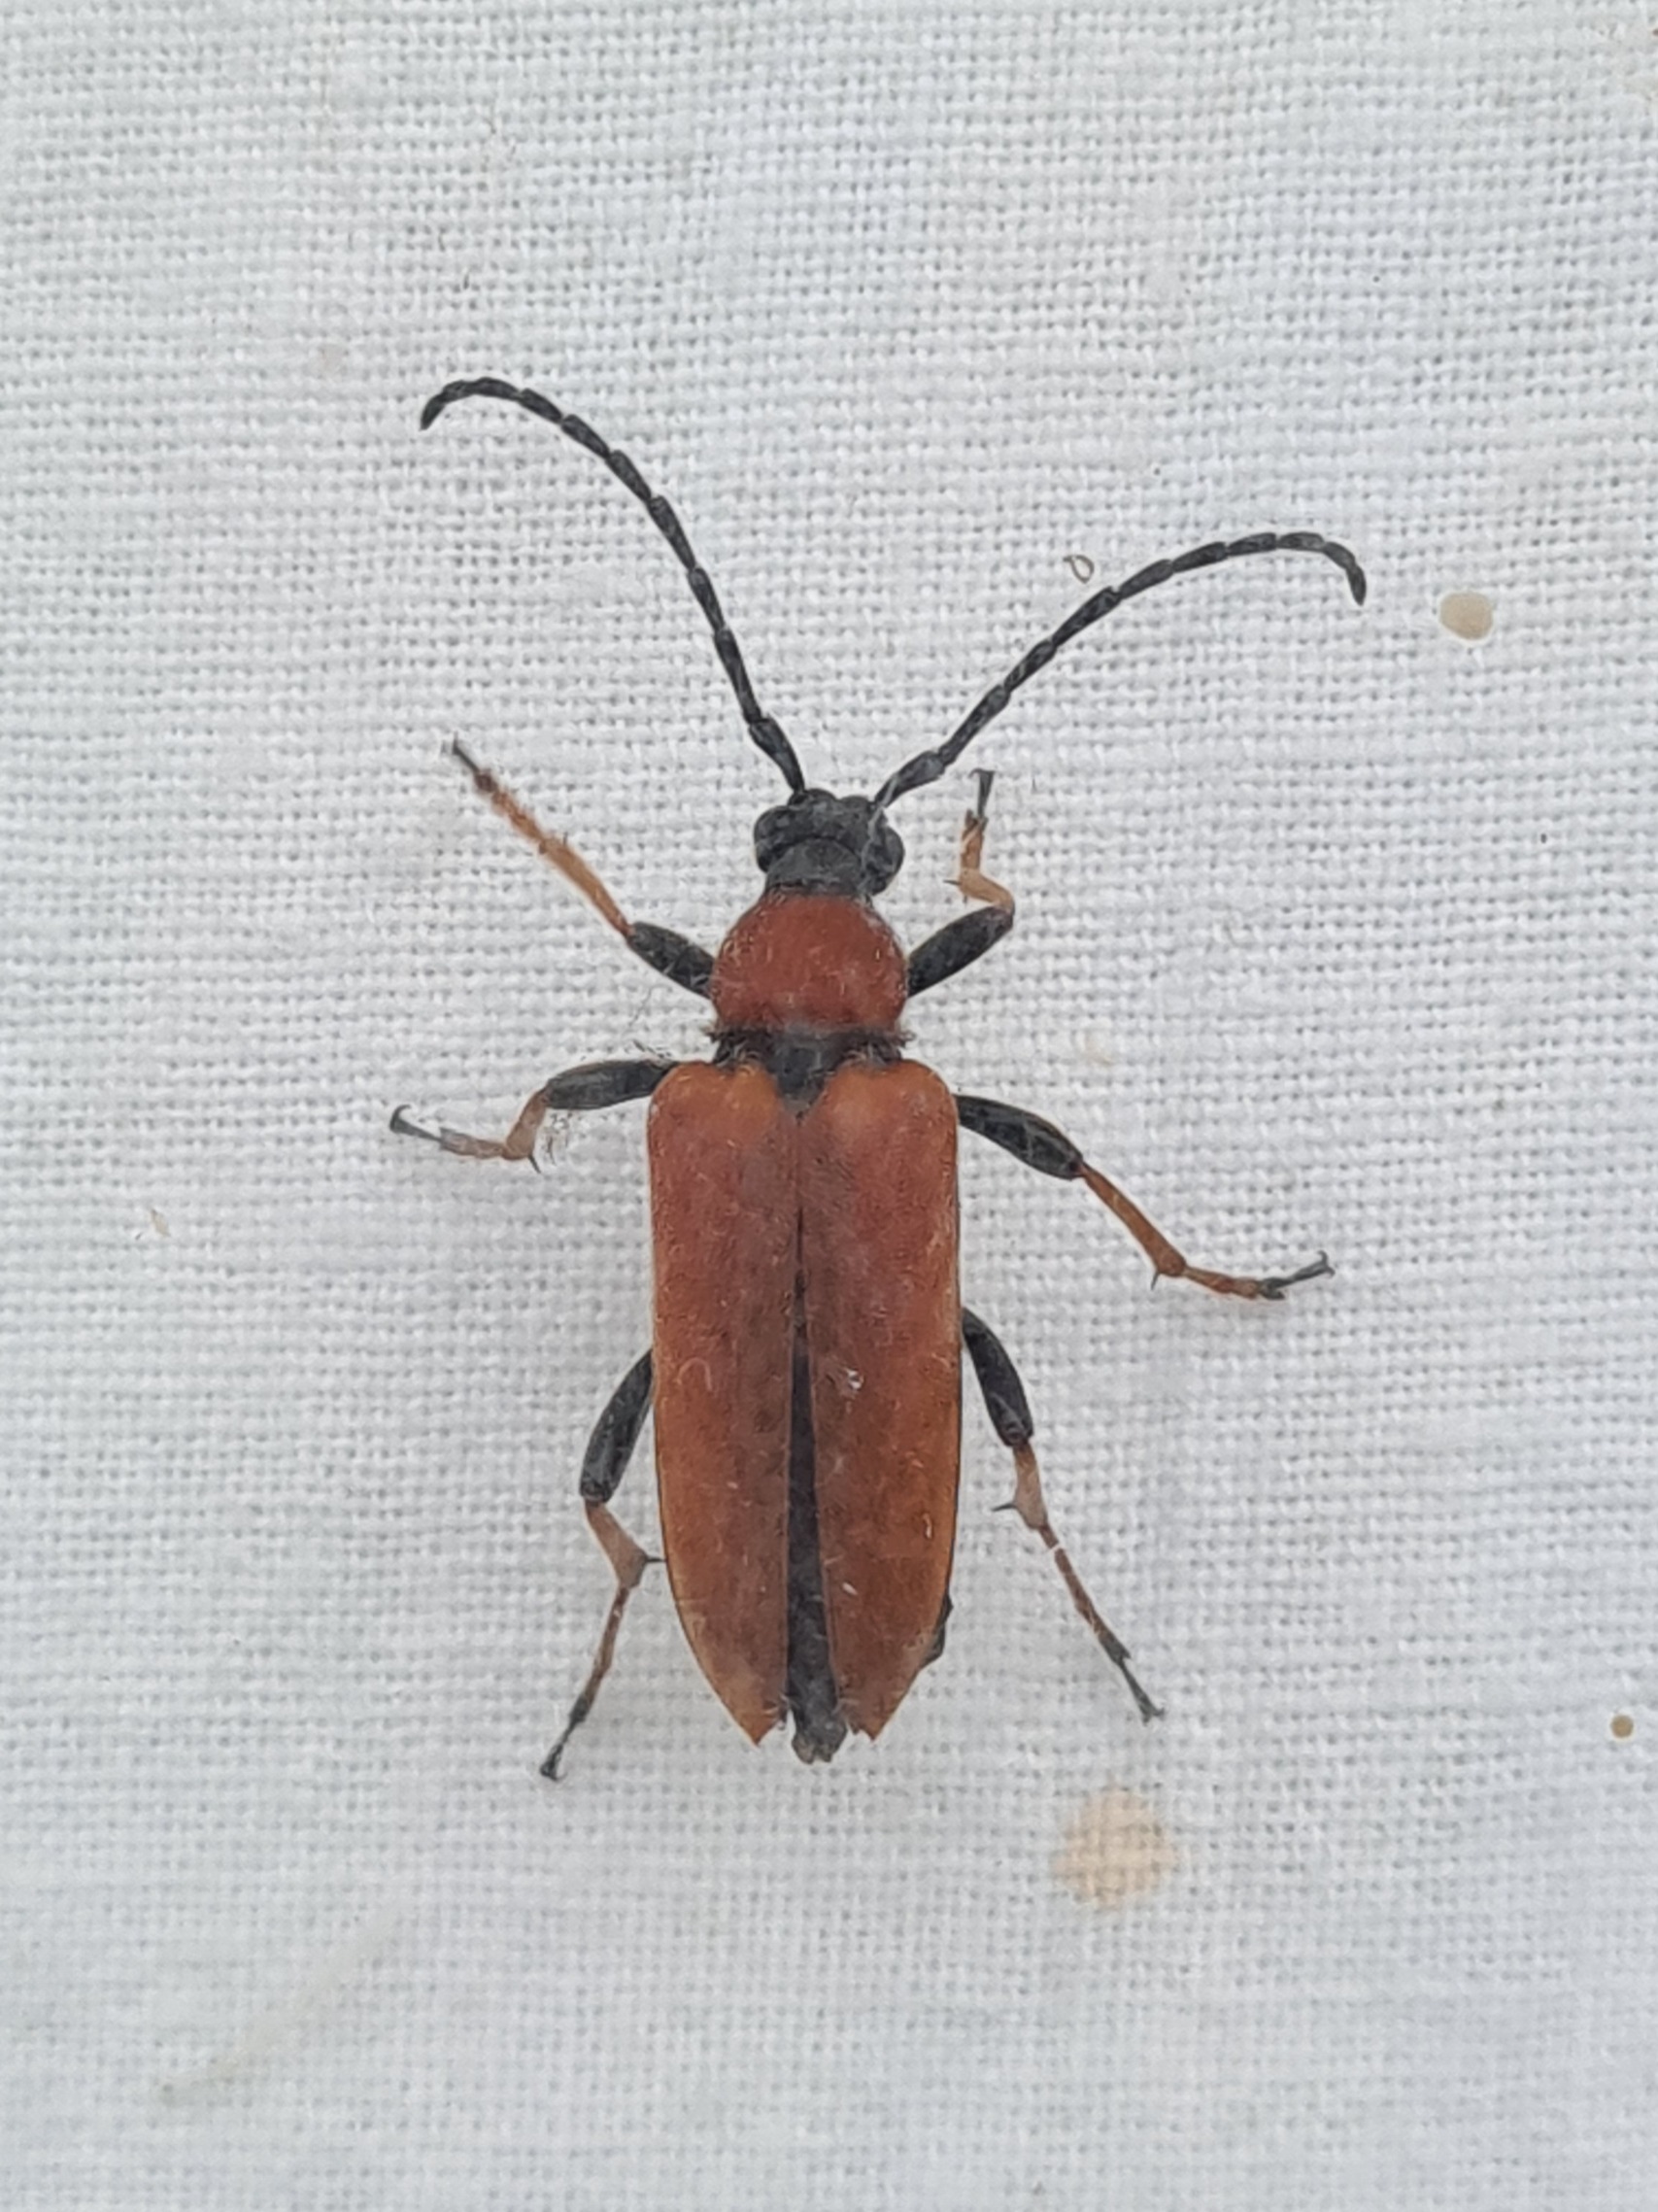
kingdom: Animalia
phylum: Arthropoda
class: Insecta
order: Coleoptera
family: Cerambycidae
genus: Stictoleptura
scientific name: Stictoleptura rubra
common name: Rød blomsterbuk
